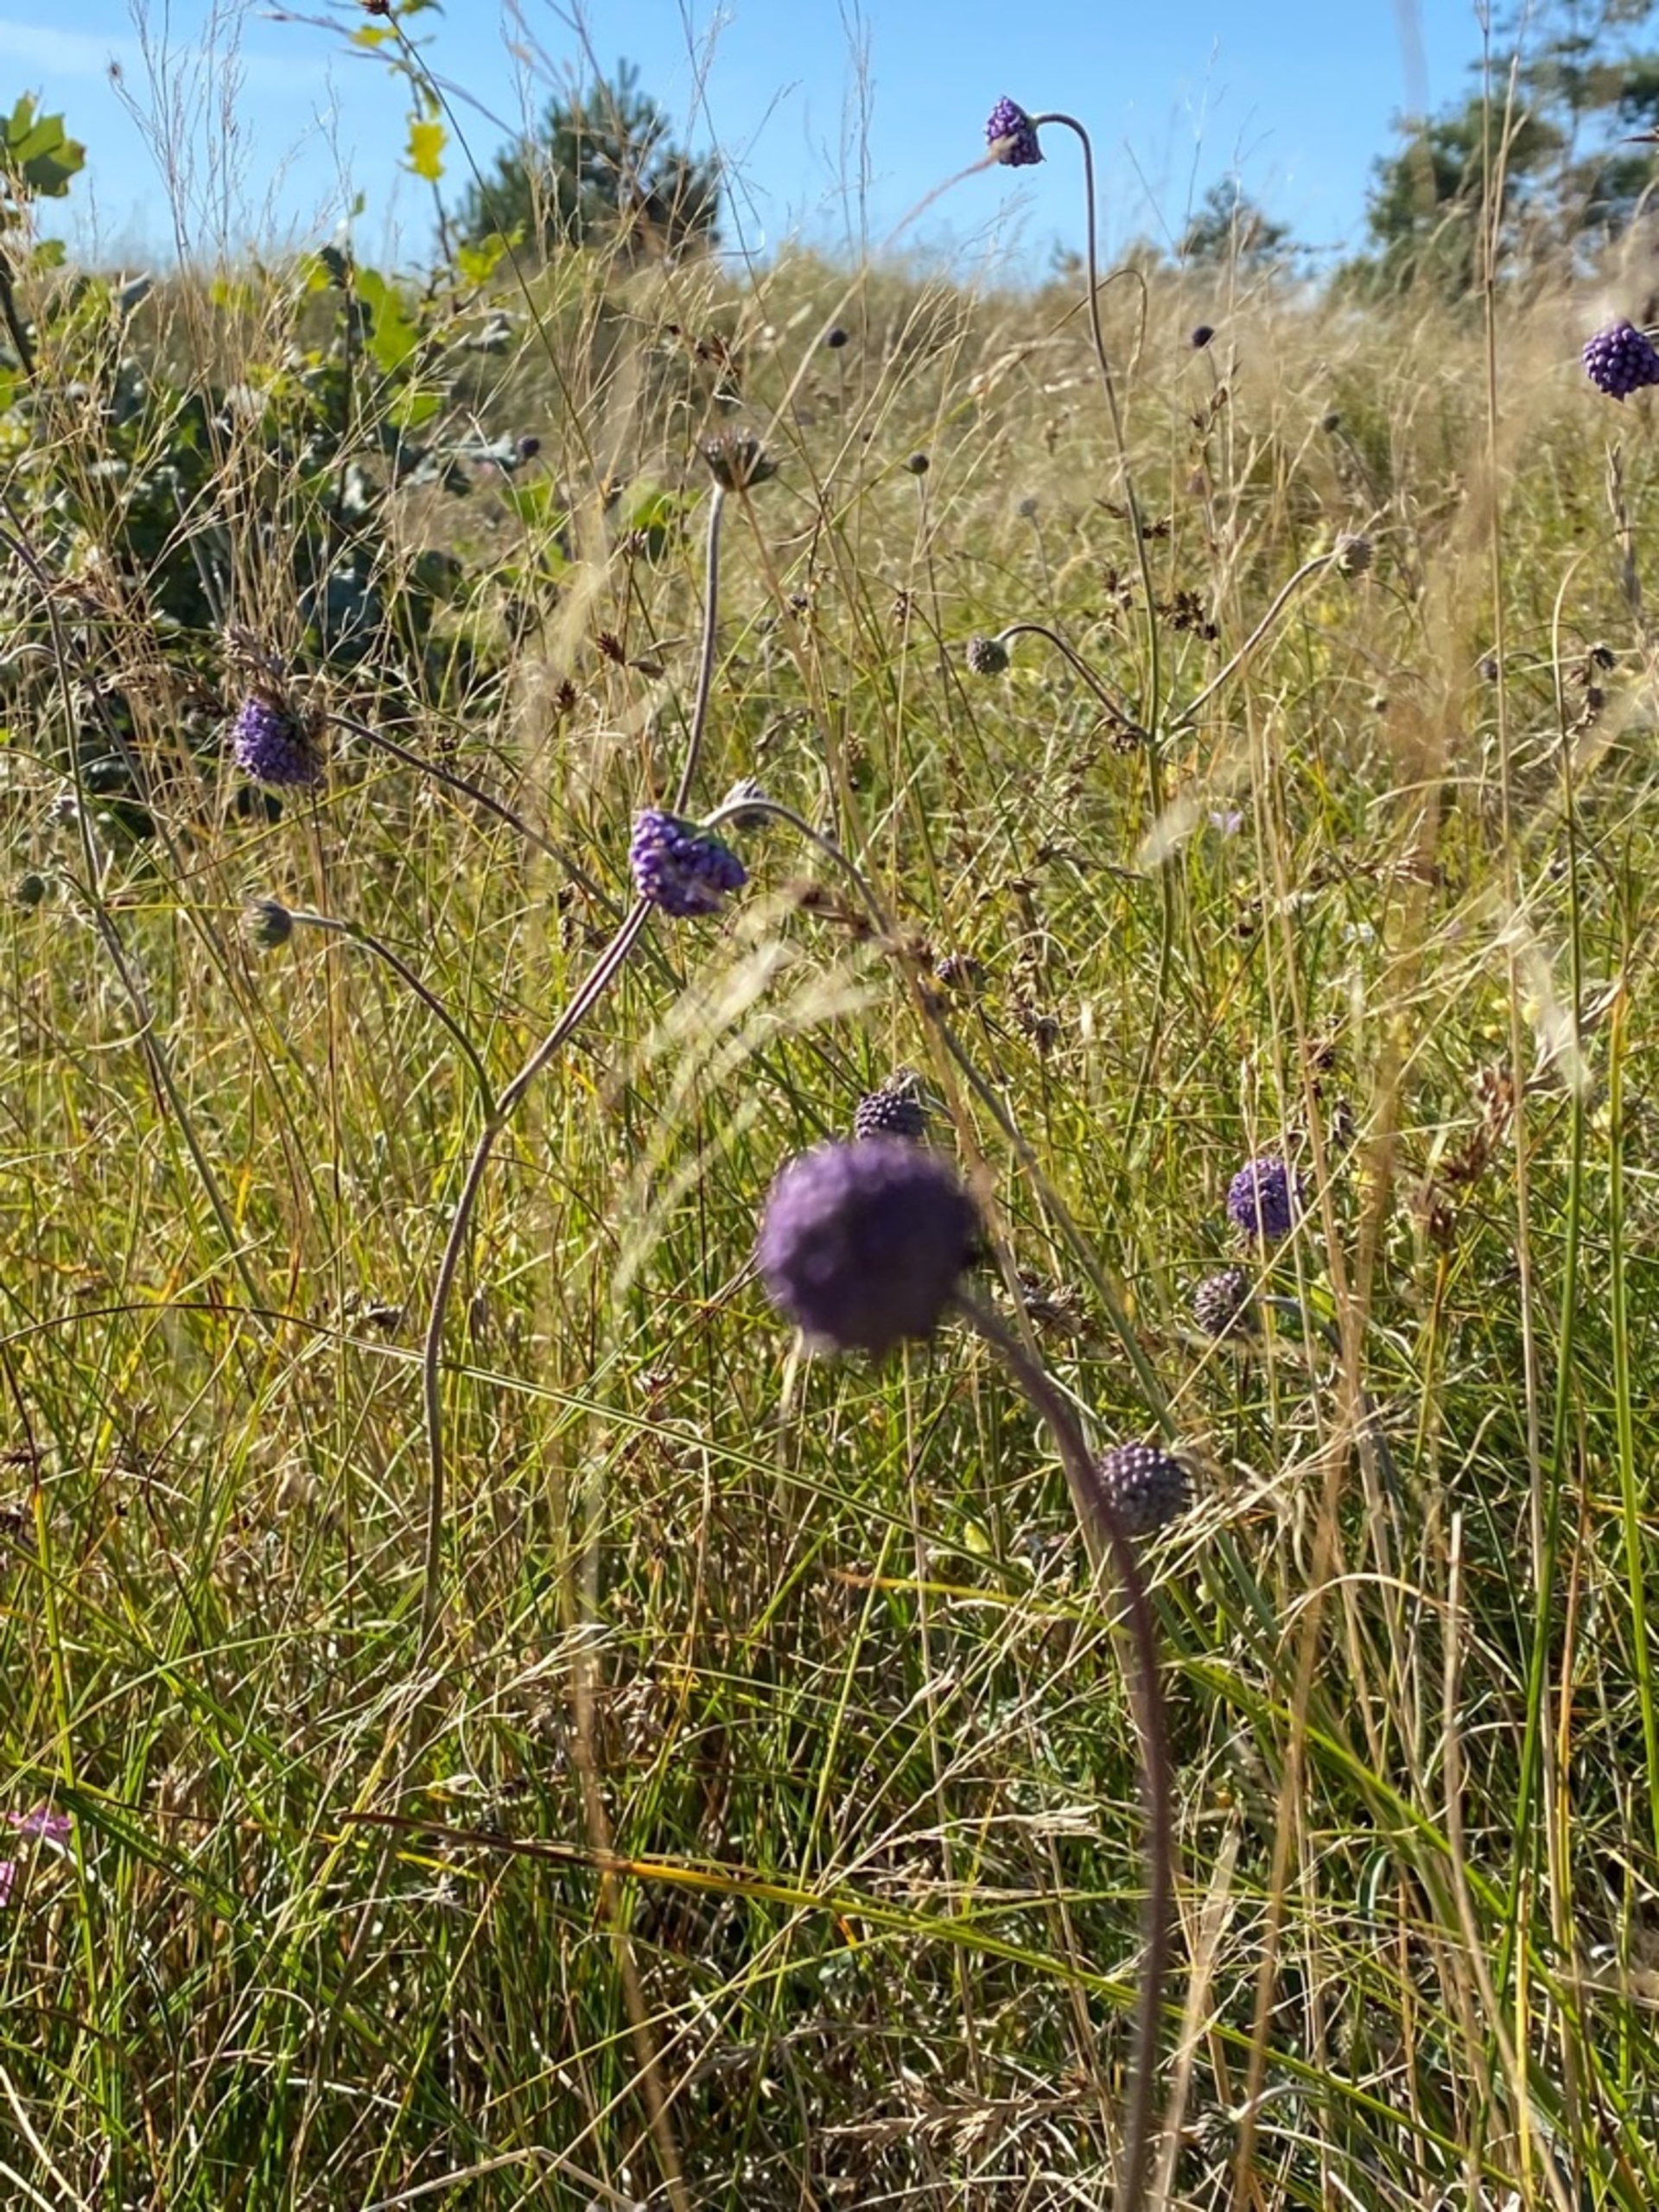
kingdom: Plantae
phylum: Tracheophyta
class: Magnoliopsida
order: Dipsacales
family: Caprifoliaceae
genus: Succisa
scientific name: Succisa pratensis
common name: Djævelsbid
